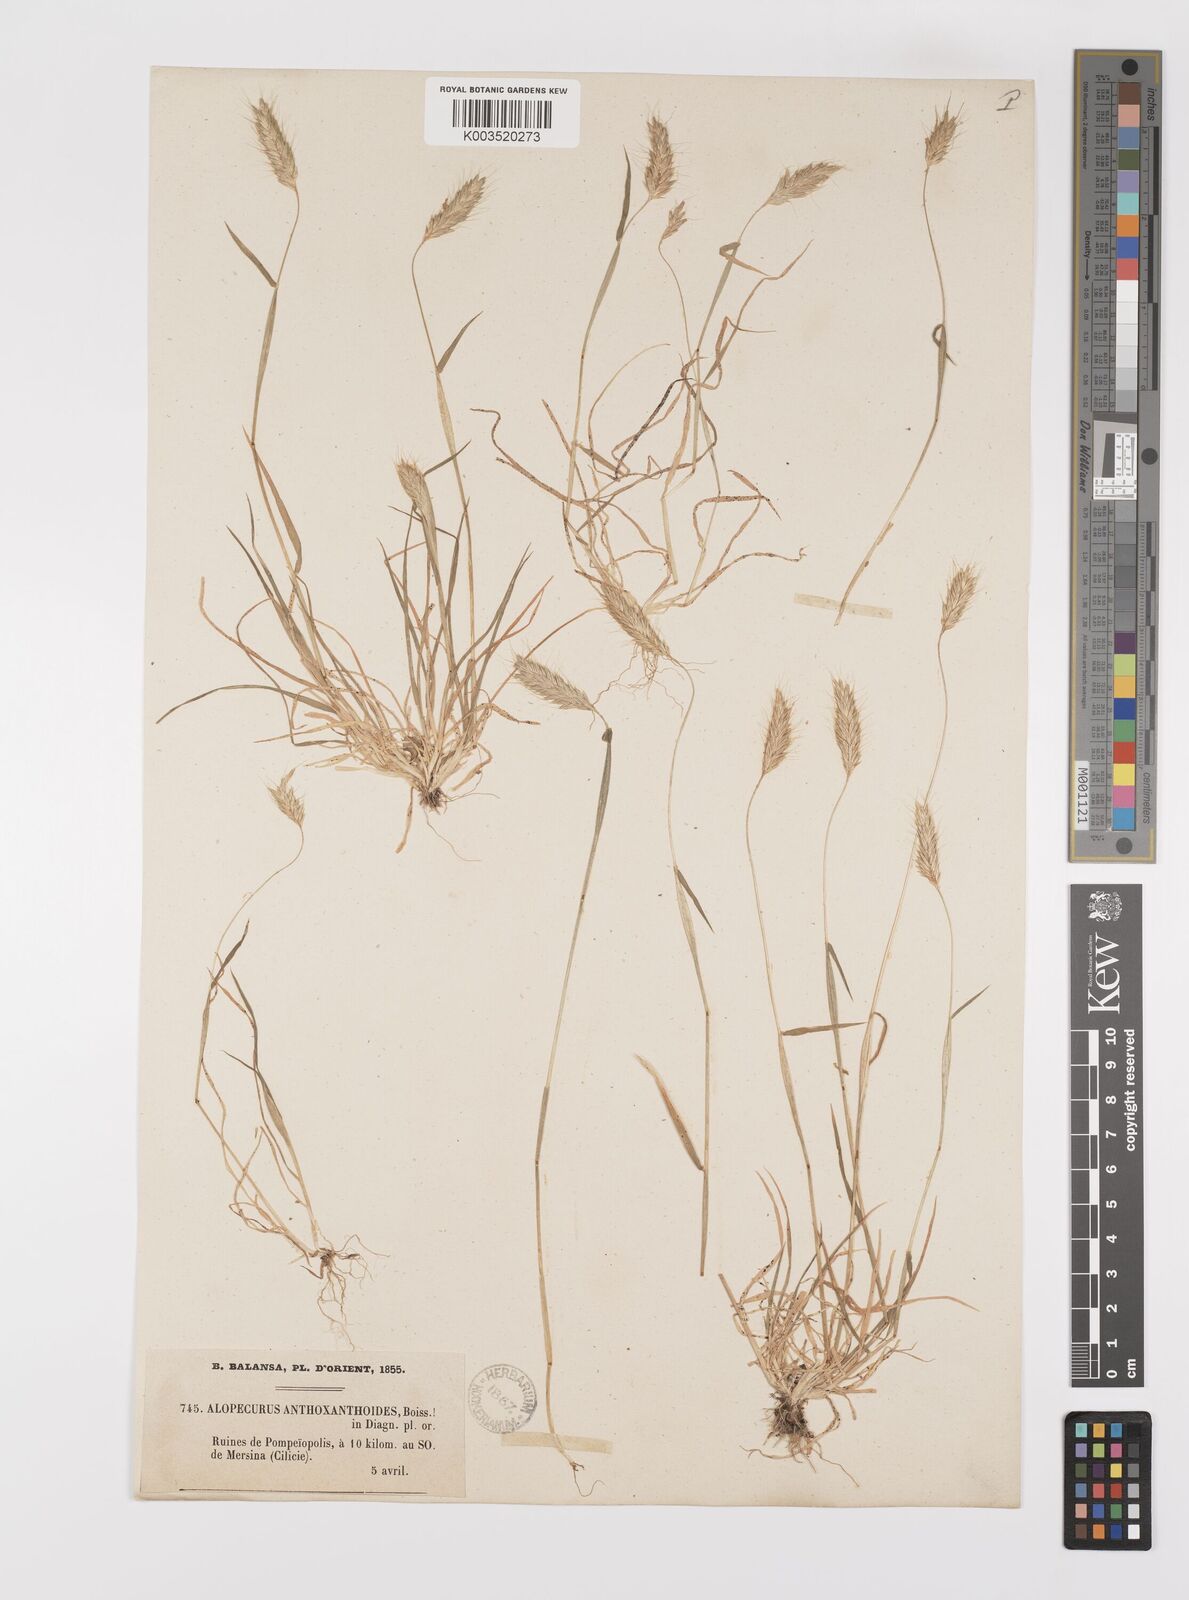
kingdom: Plantae
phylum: Tracheophyta
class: Liliopsida
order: Poales
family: Poaceae
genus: Alopecurus
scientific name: Alopecurus utriculatus
